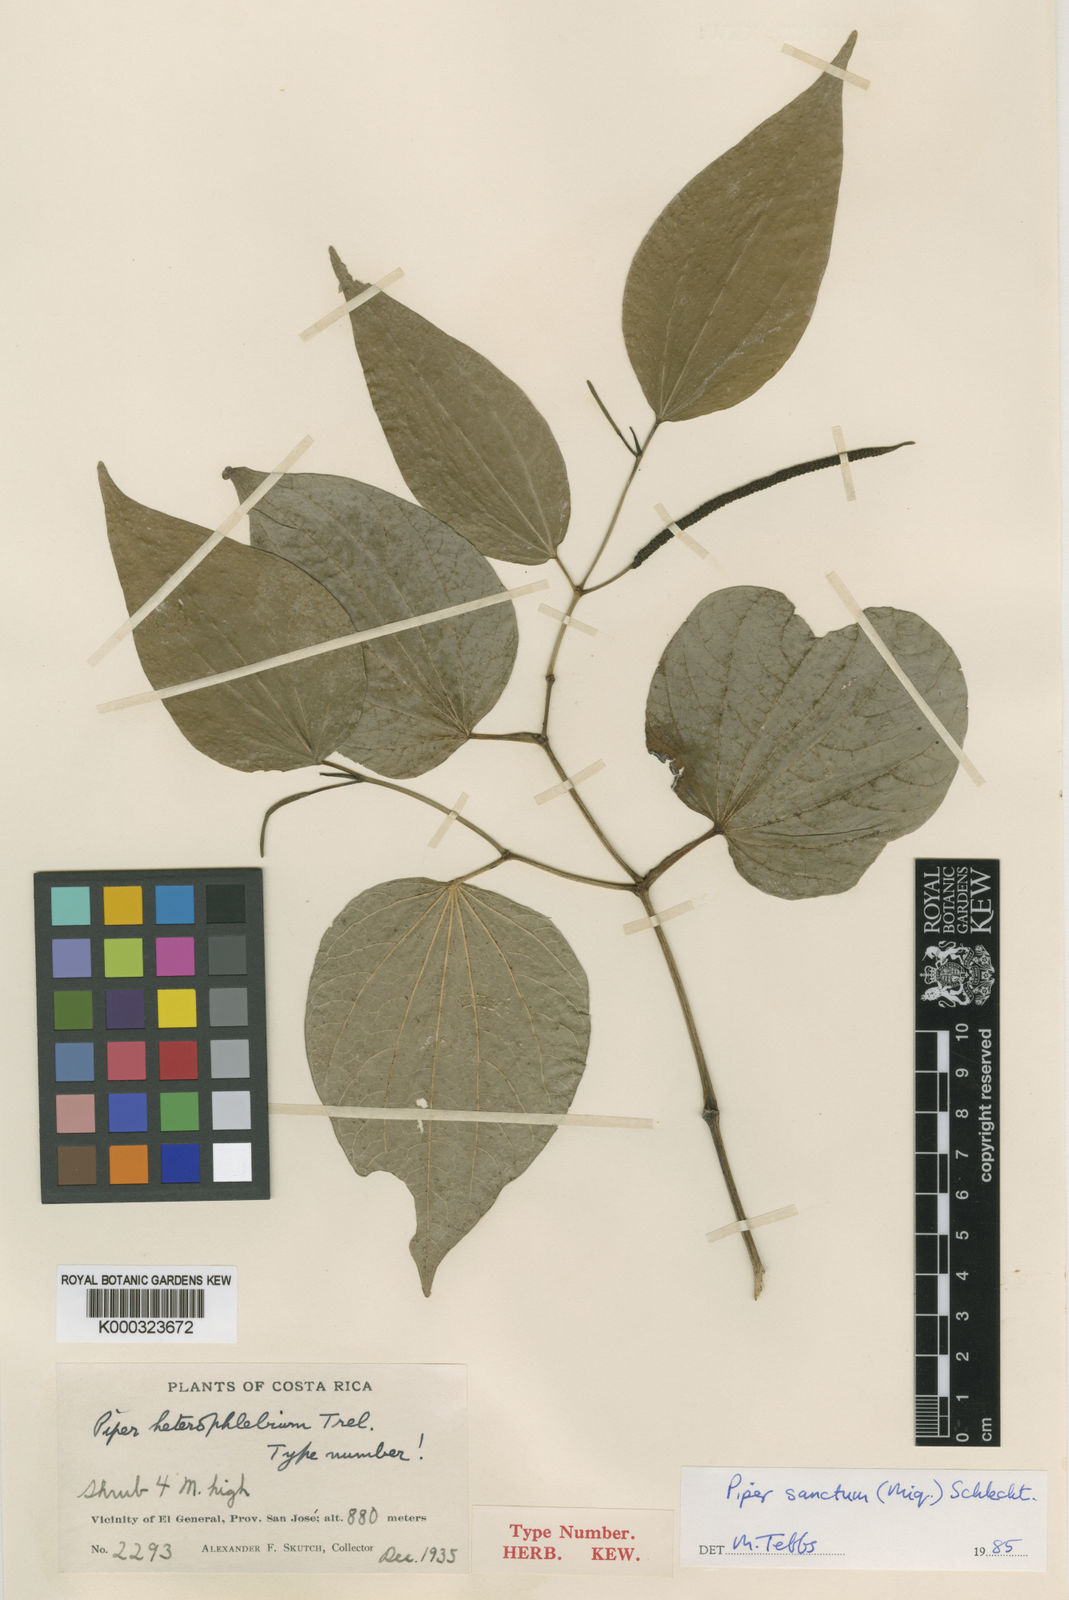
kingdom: Plantae
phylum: Tracheophyta
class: Magnoliopsida
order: Piperales
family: Piperaceae
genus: Piper
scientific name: Piper
